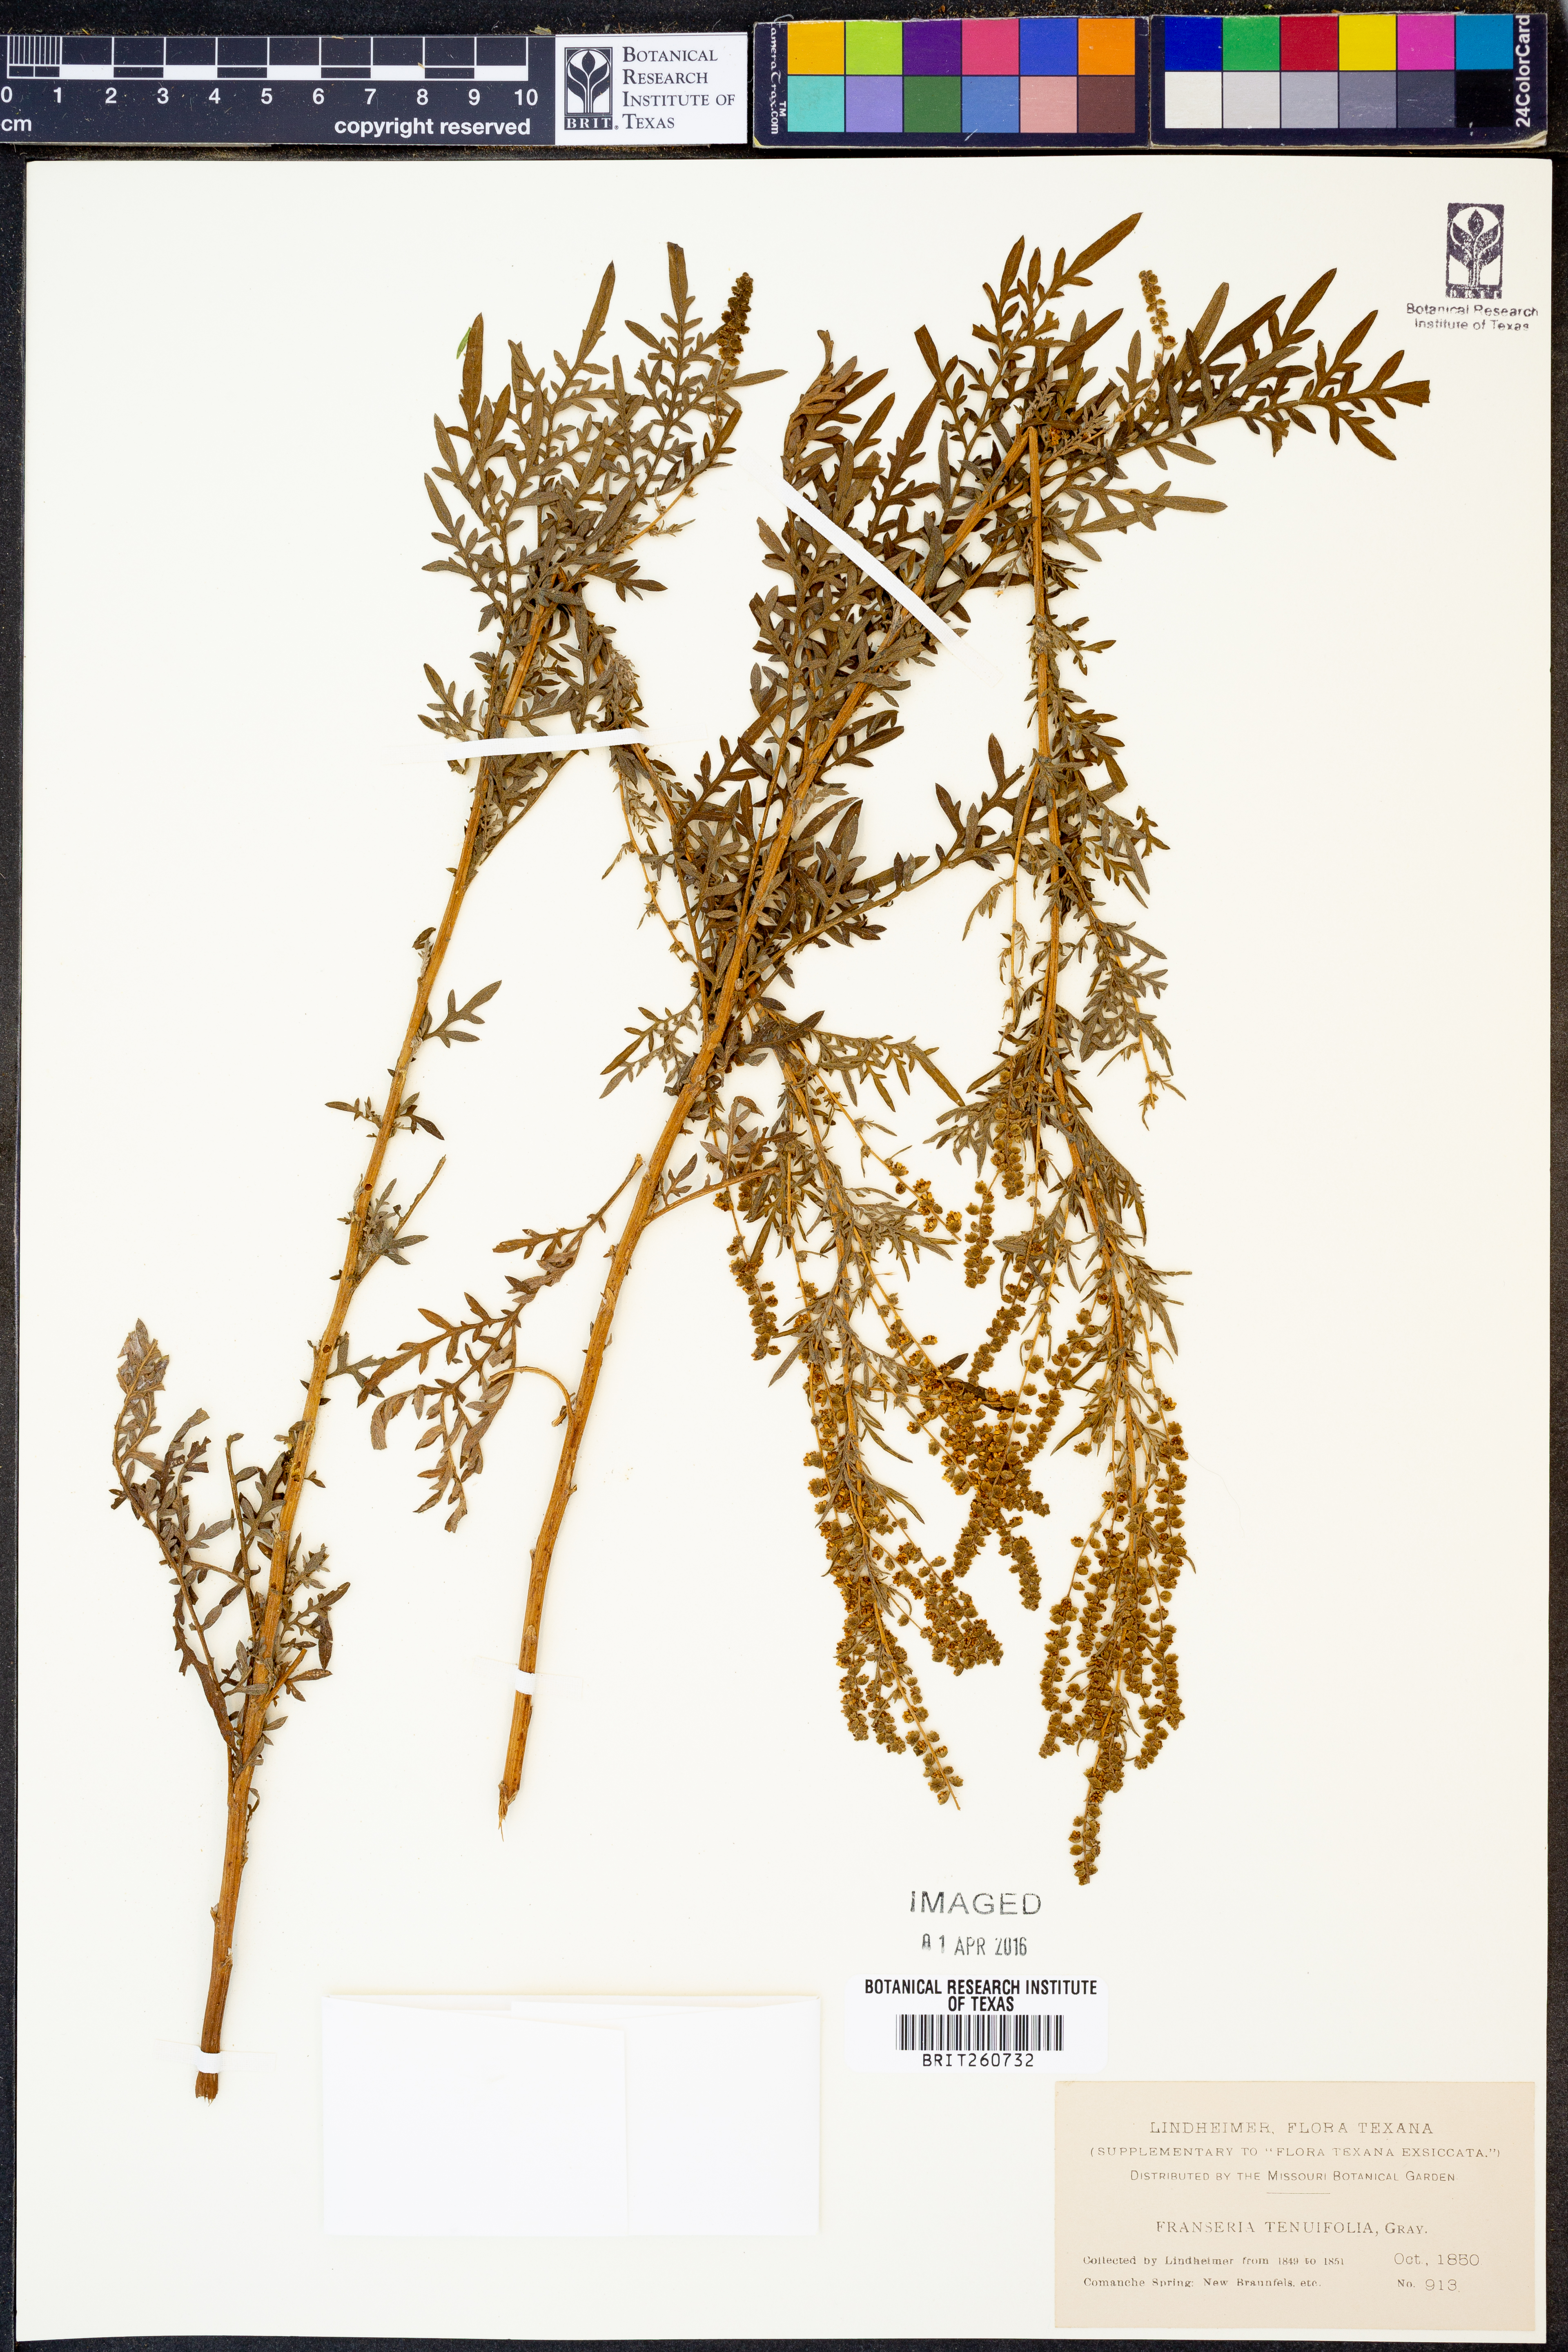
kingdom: Plantae
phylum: Tracheophyta
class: Magnoliopsida
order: Asterales
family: Asteraceae
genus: Ambrosia
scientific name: Ambrosia tenuifolia
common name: Lacy ambrosia
